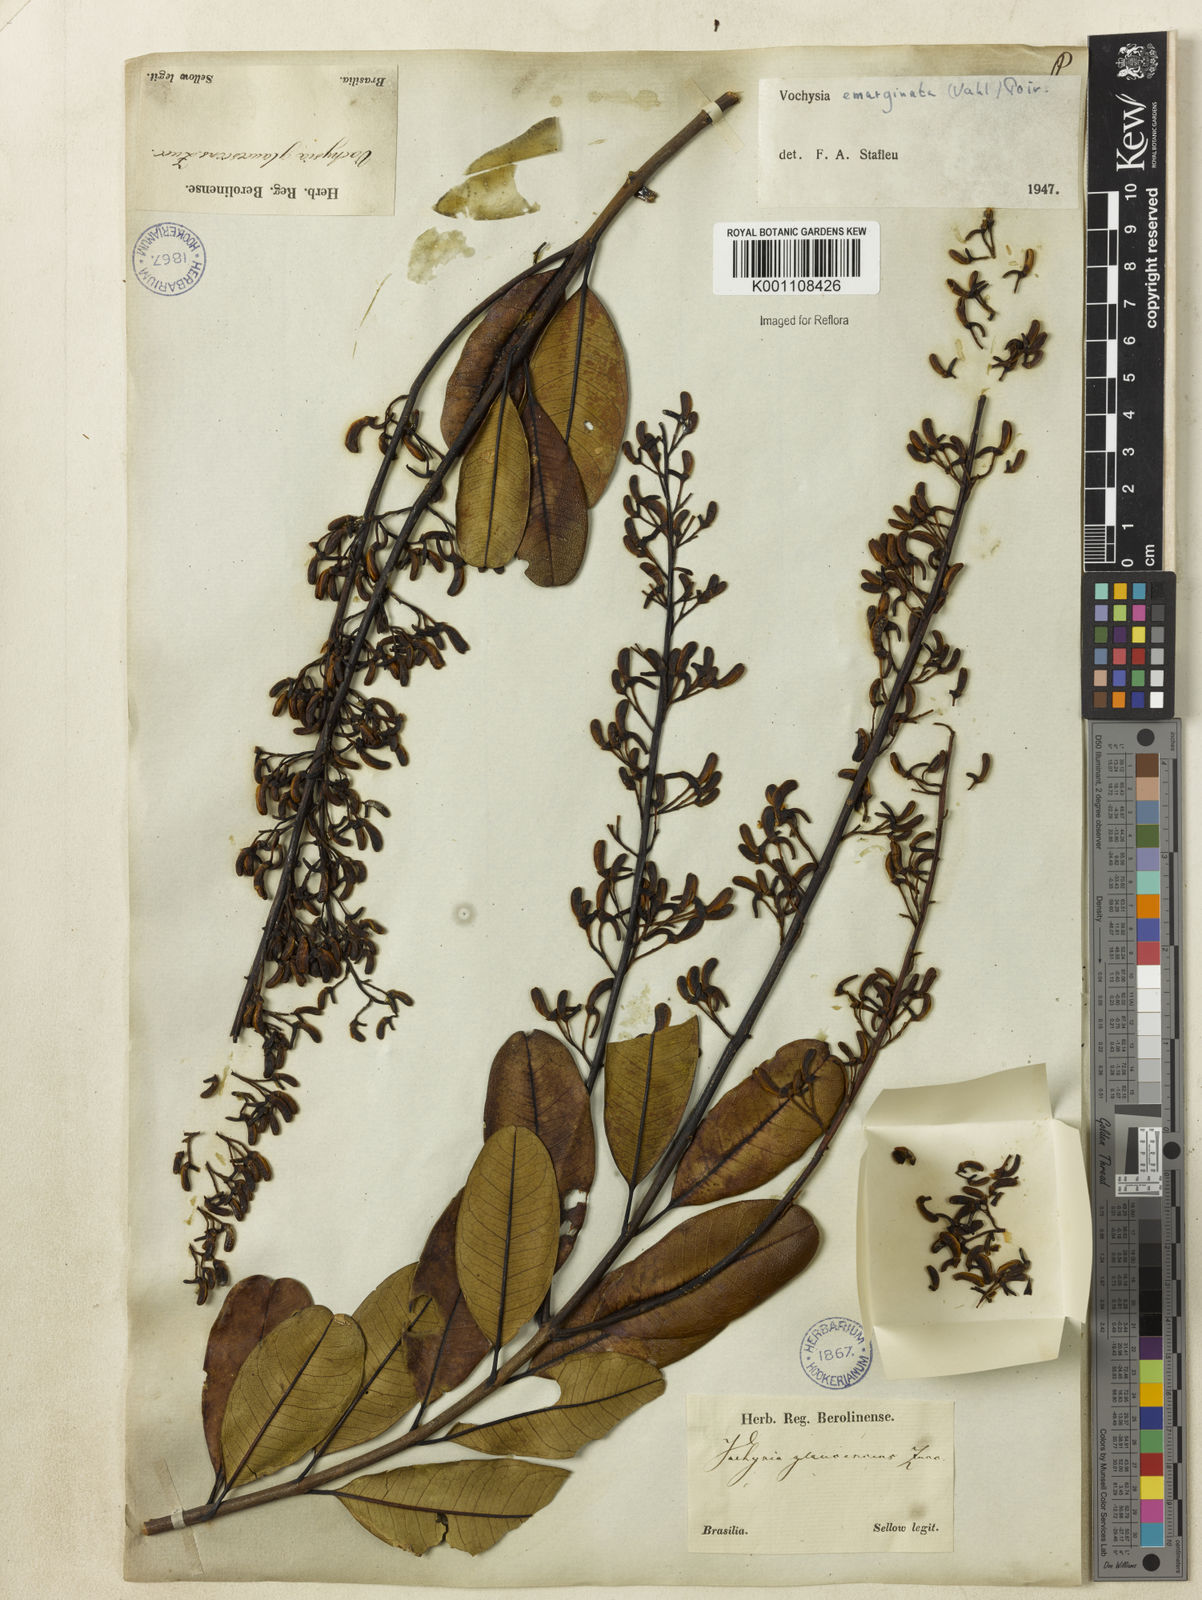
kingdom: Plantae
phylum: Tracheophyta
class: Magnoliopsida
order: Myrtales
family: Vochysiaceae
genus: Vochysia
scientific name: Vochysia
